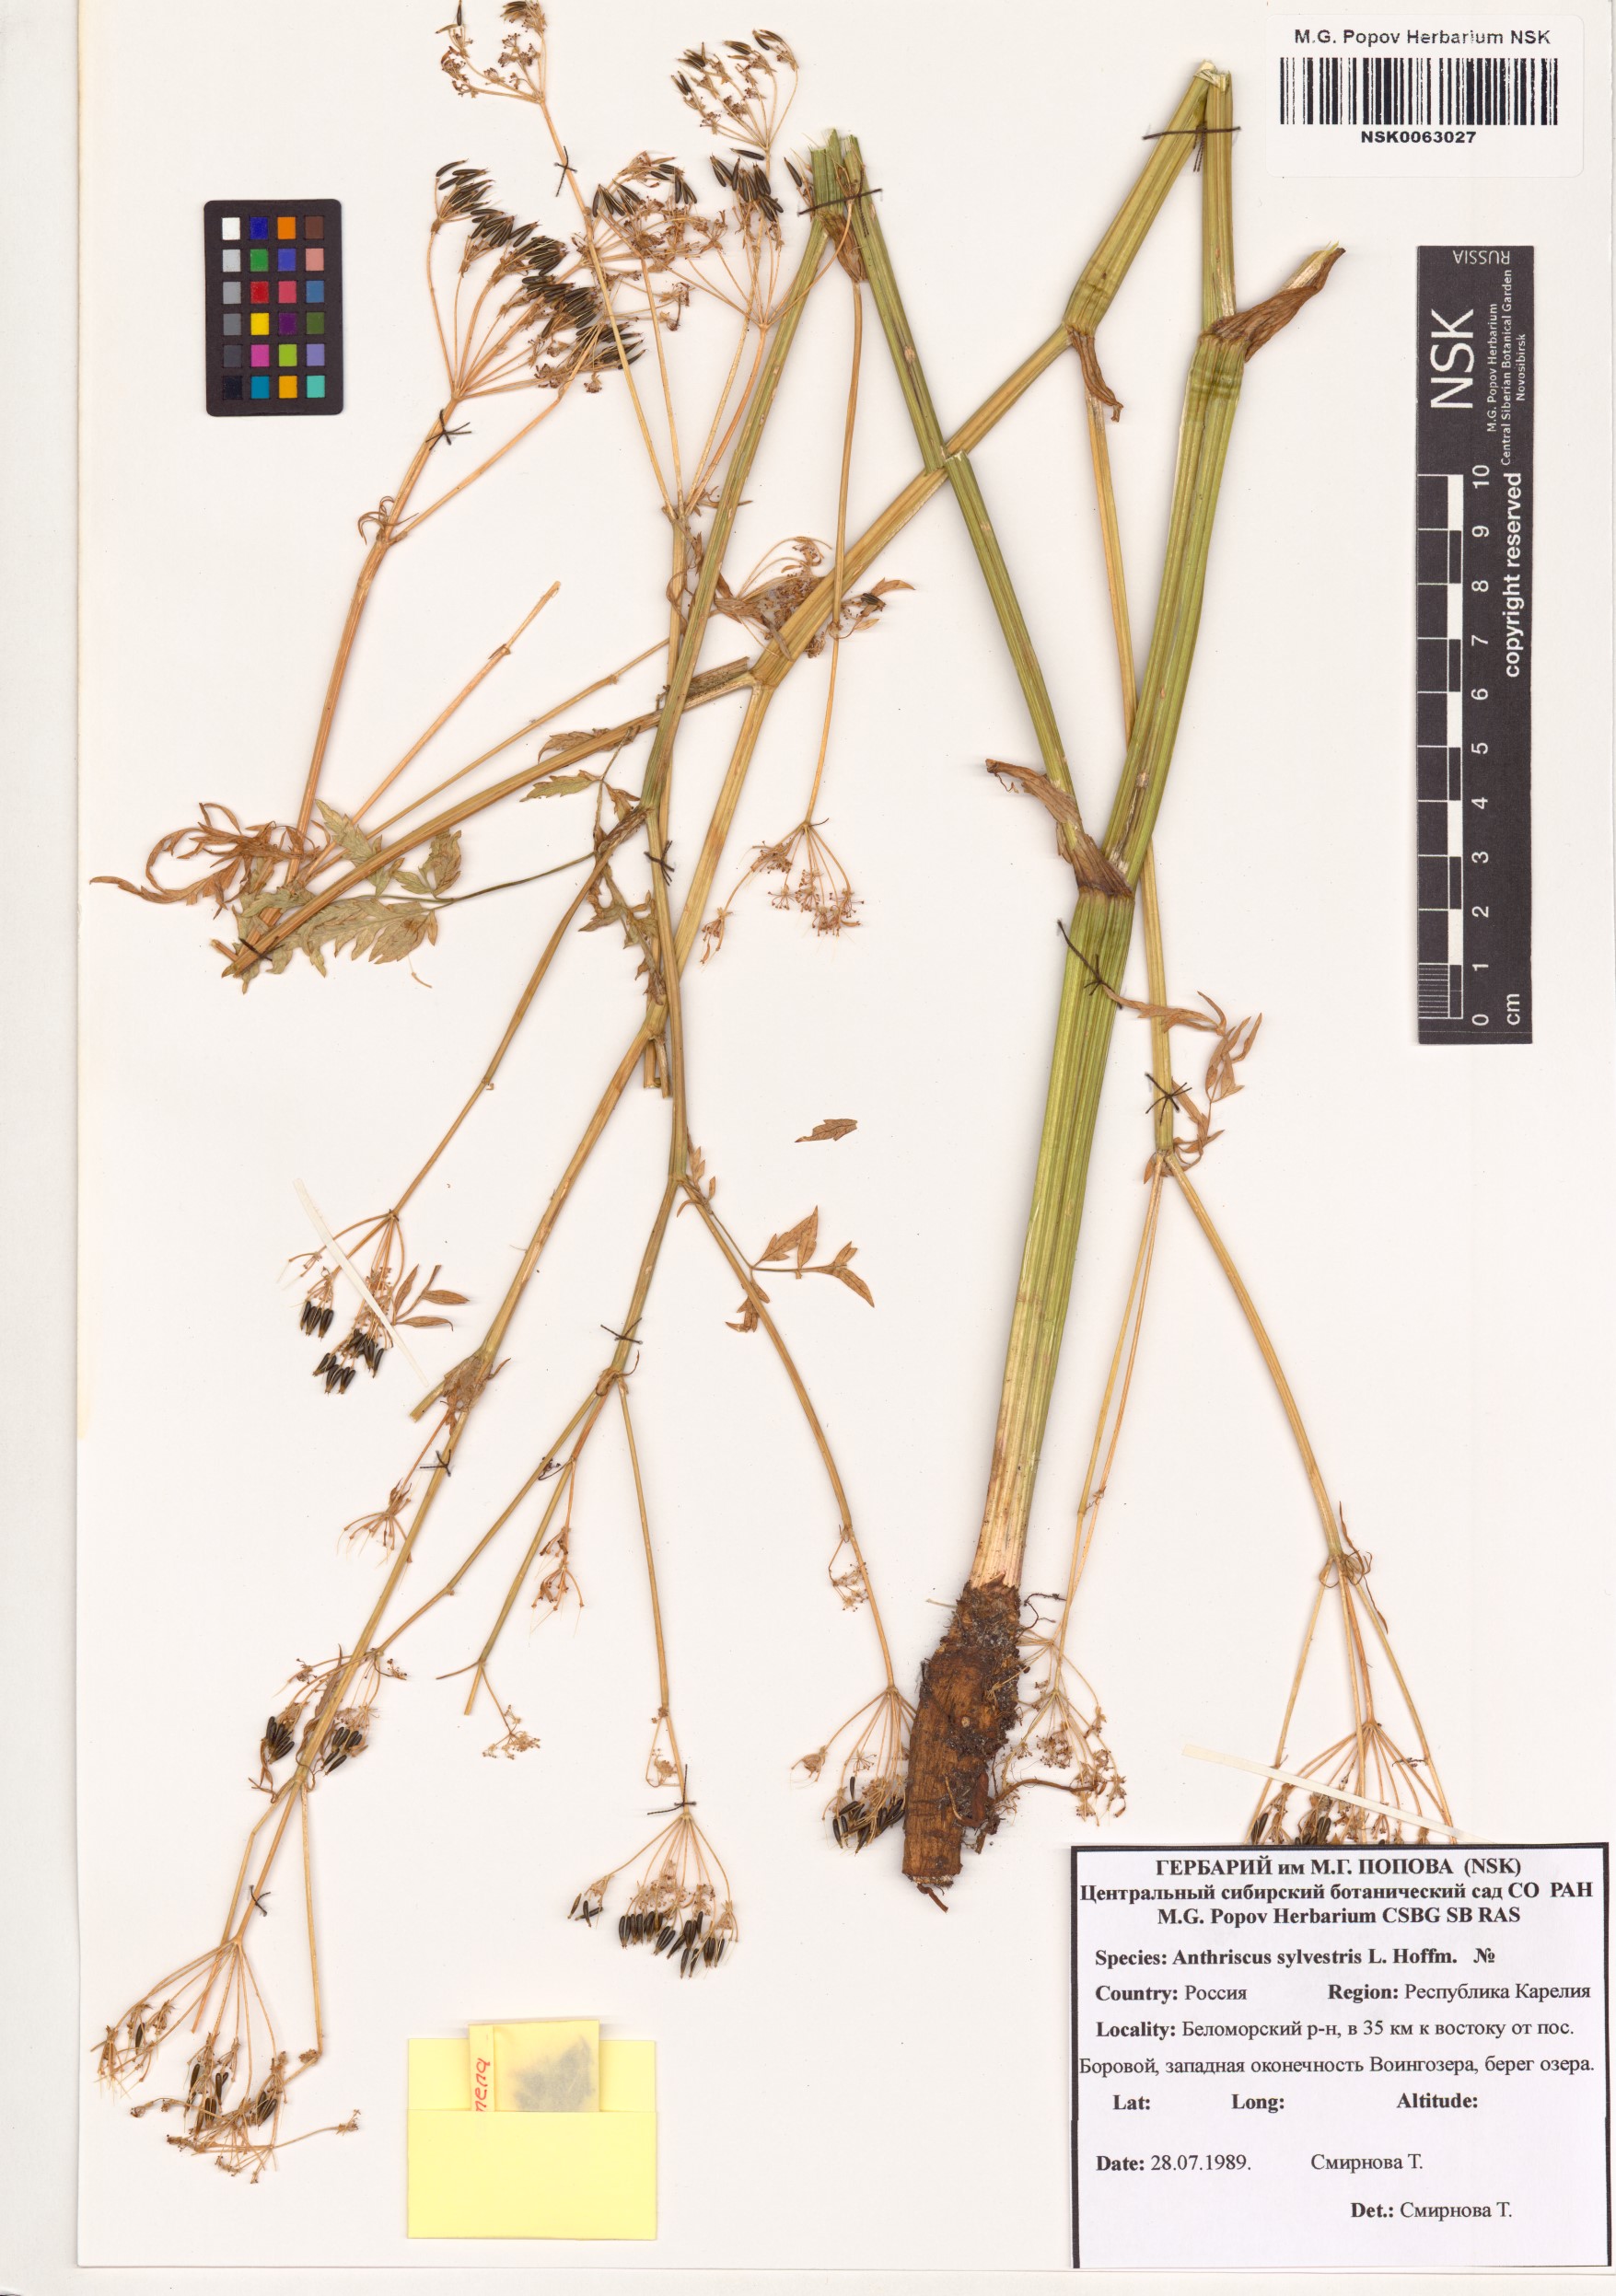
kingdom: Plantae
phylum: Tracheophyta
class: Magnoliopsida
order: Apiales
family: Apiaceae
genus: Anthriscus
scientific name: Anthriscus sylvestris
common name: Cow parsley
